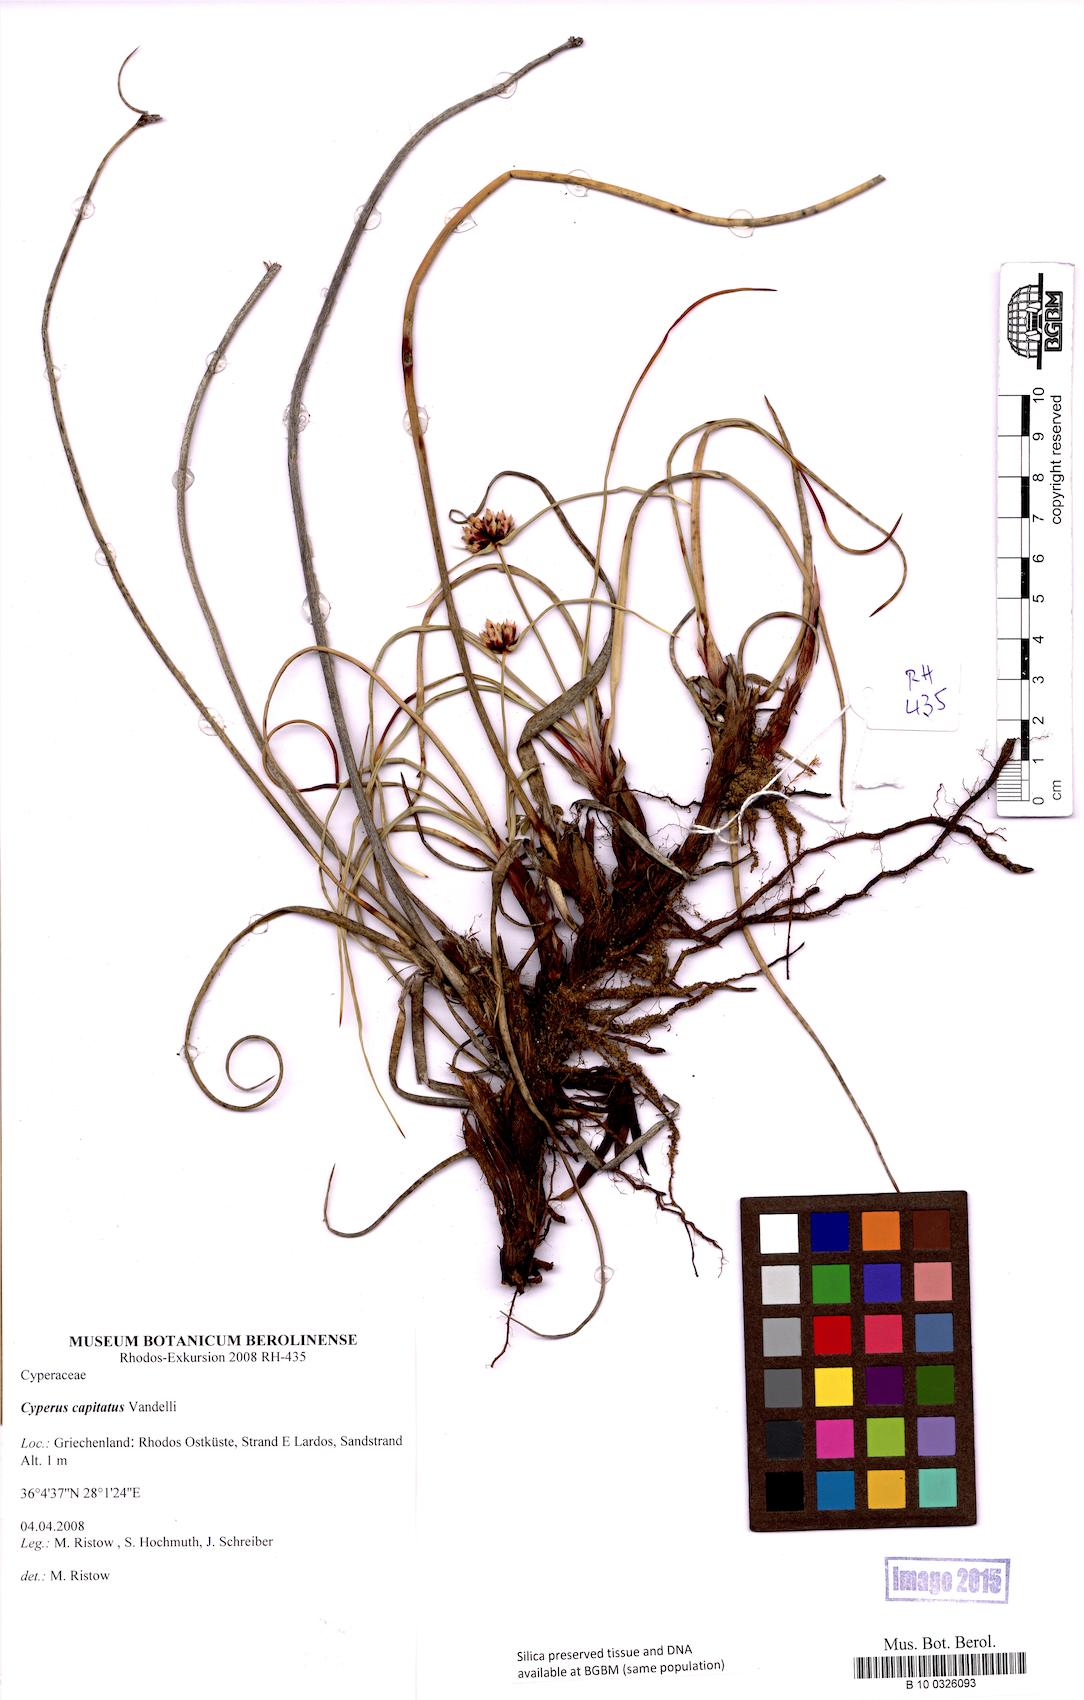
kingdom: Plantae
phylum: Tracheophyta
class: Liliopsida
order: Poales
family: Cyperaceae
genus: Cyperus
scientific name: Cyperus capitatus
